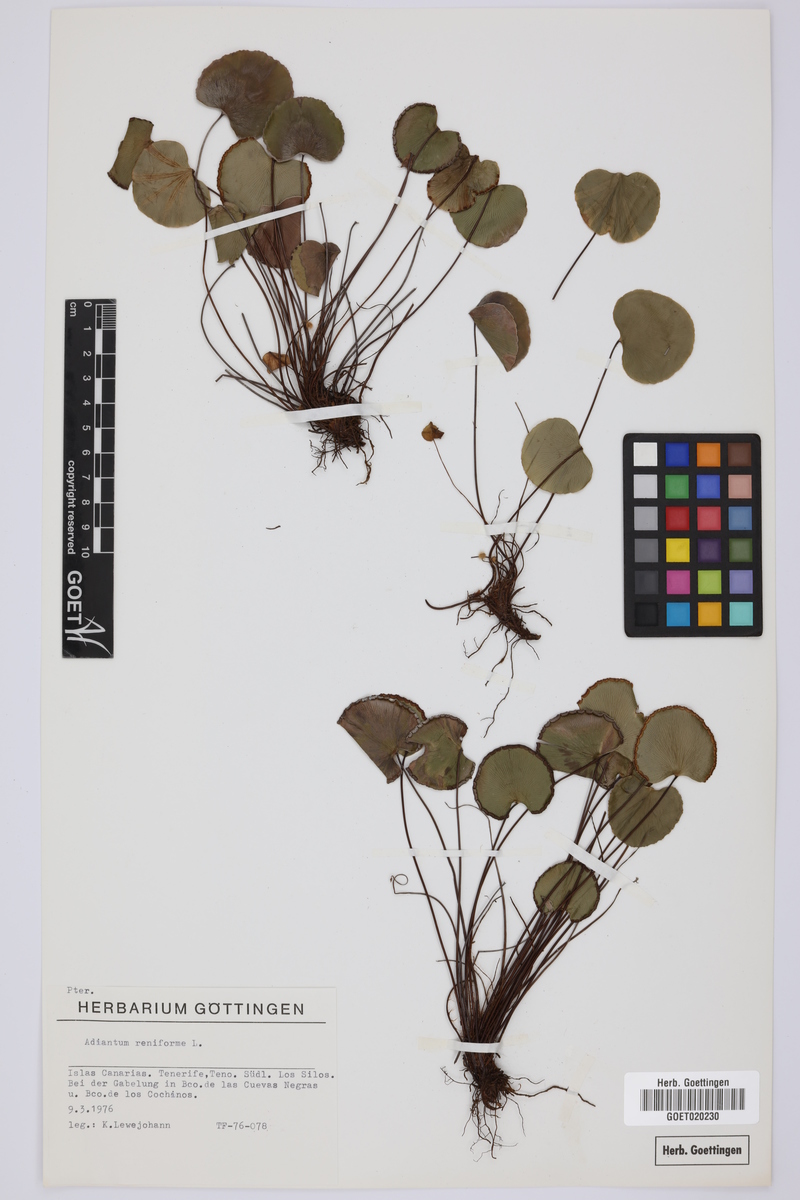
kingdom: Plantae
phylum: Tracheophyta
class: Polypodiopsida
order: Polypodiales
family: Pteridaceae
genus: Adiantum
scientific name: Adiantum reniforme
